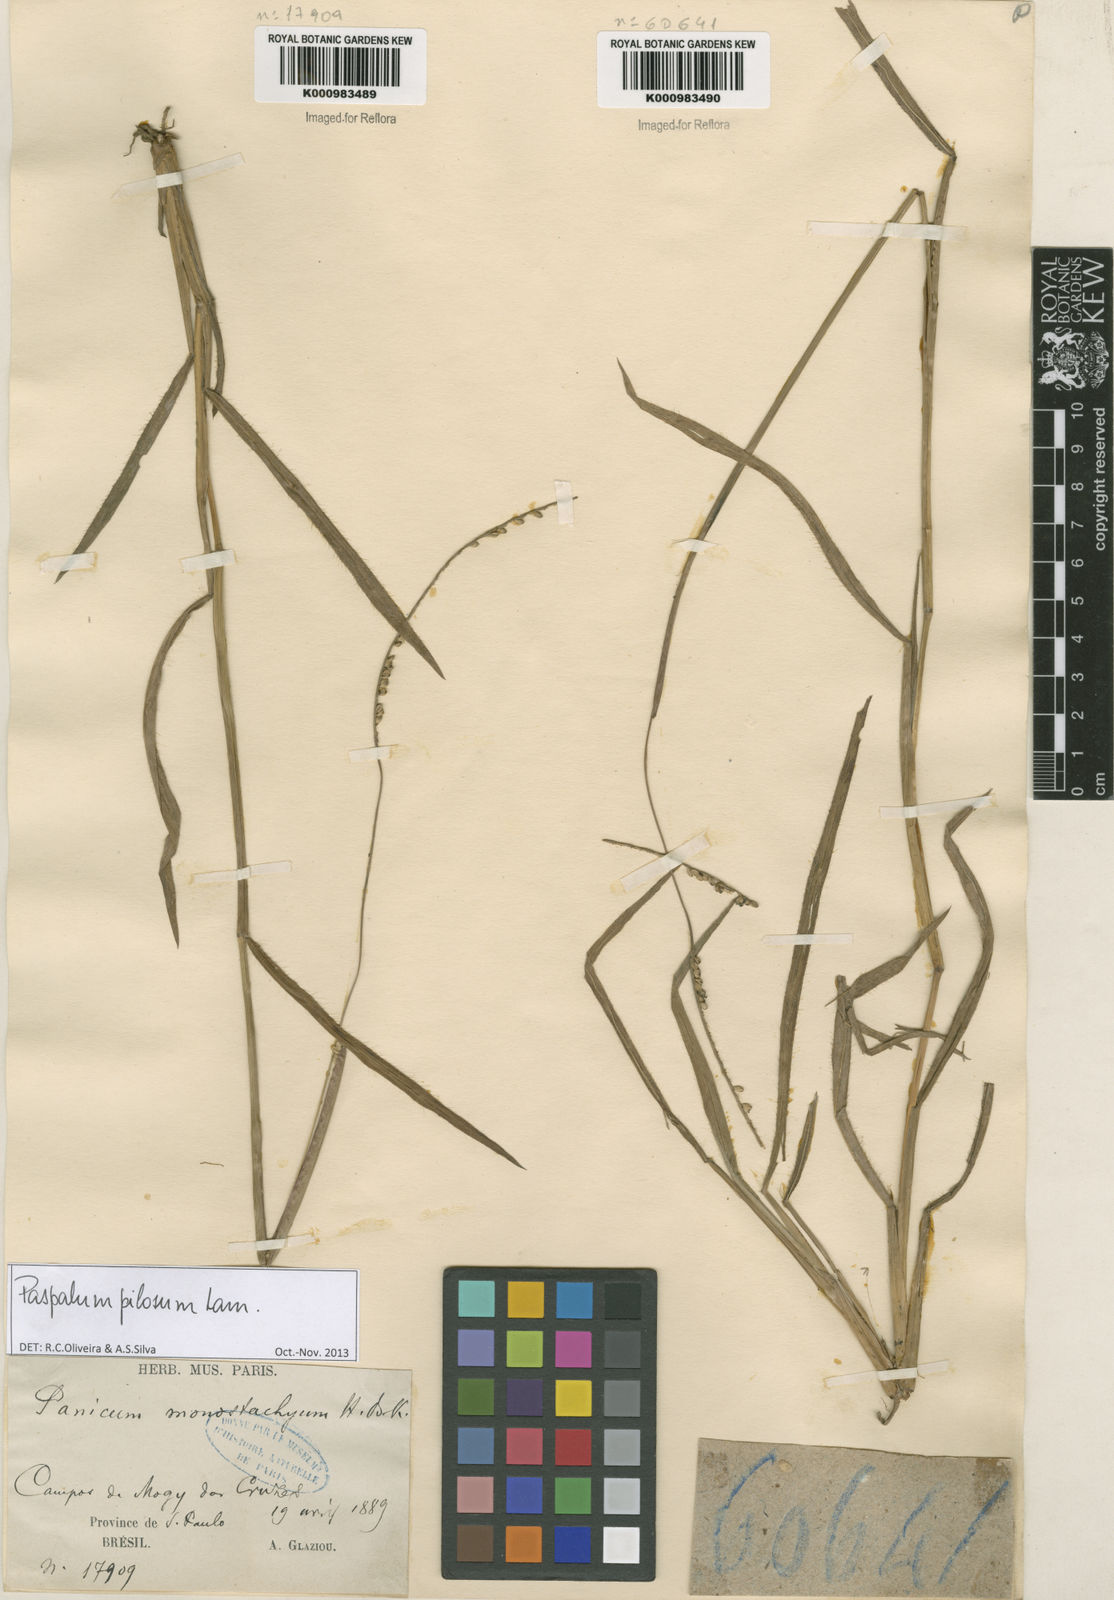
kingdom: Plantae
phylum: Tracheophyta
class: Liliopsida
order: Poales
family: Poaceae
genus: Paspalum
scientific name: Paspalum pilosum
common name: Crowngrass
